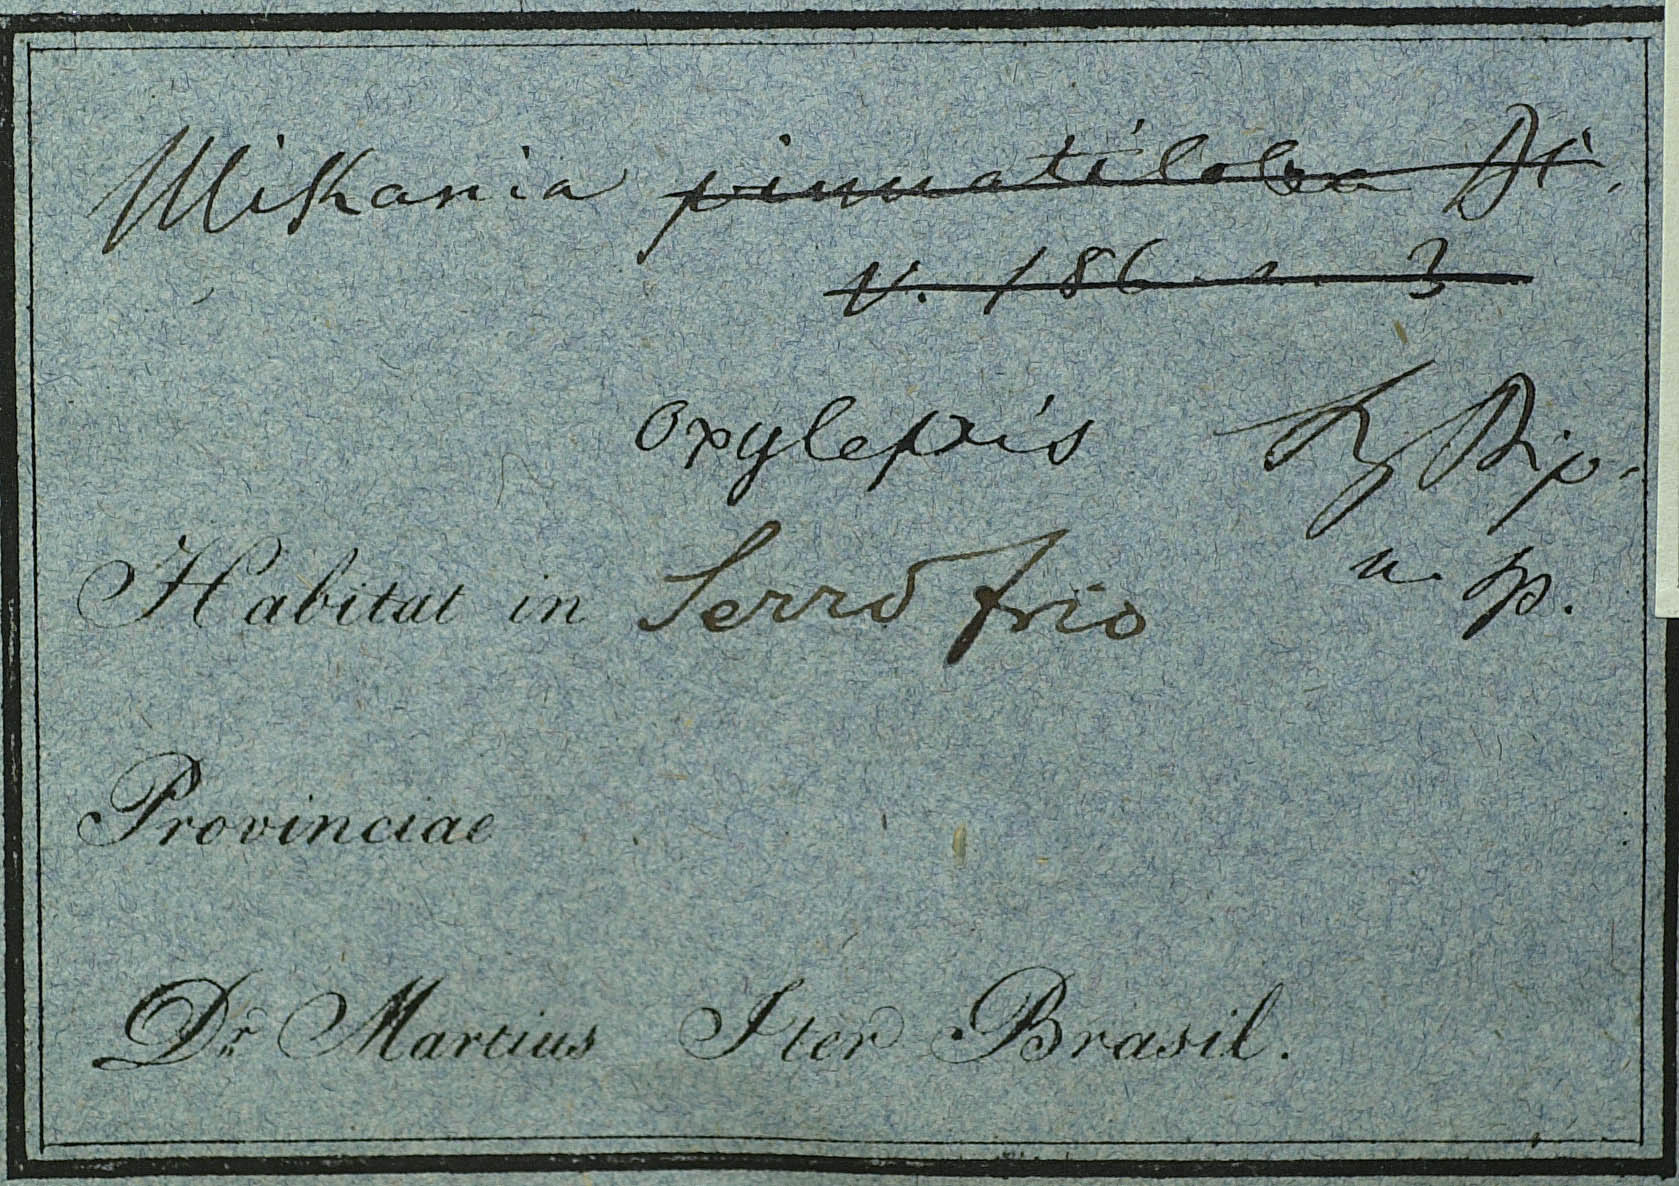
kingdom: Plantae
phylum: Tracheophyta
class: Magnoliopsida
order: Asterales
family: Asteraceae
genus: Mikania
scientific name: Mikania oxylepis
